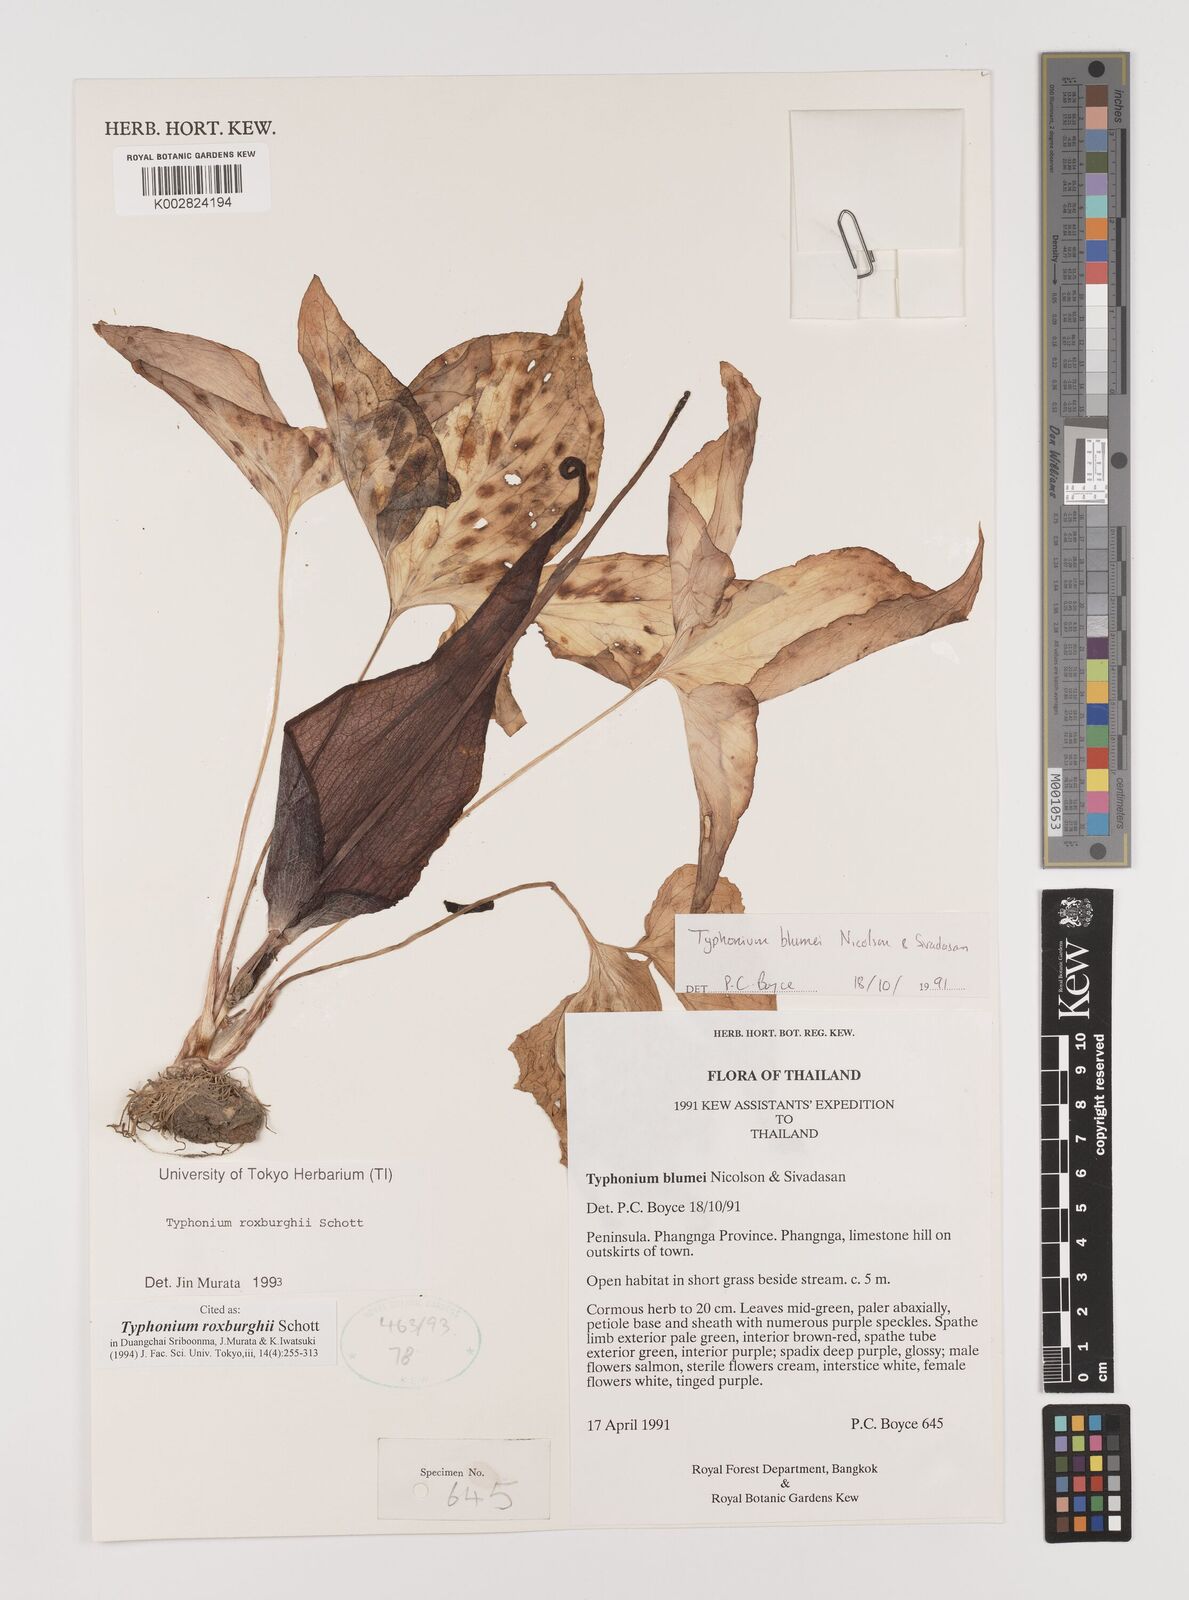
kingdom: Plantae
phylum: Tracheophyta
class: Liliopsida
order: Alismatales
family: Araceae
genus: Typhonium
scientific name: Typhonium roxburghii
